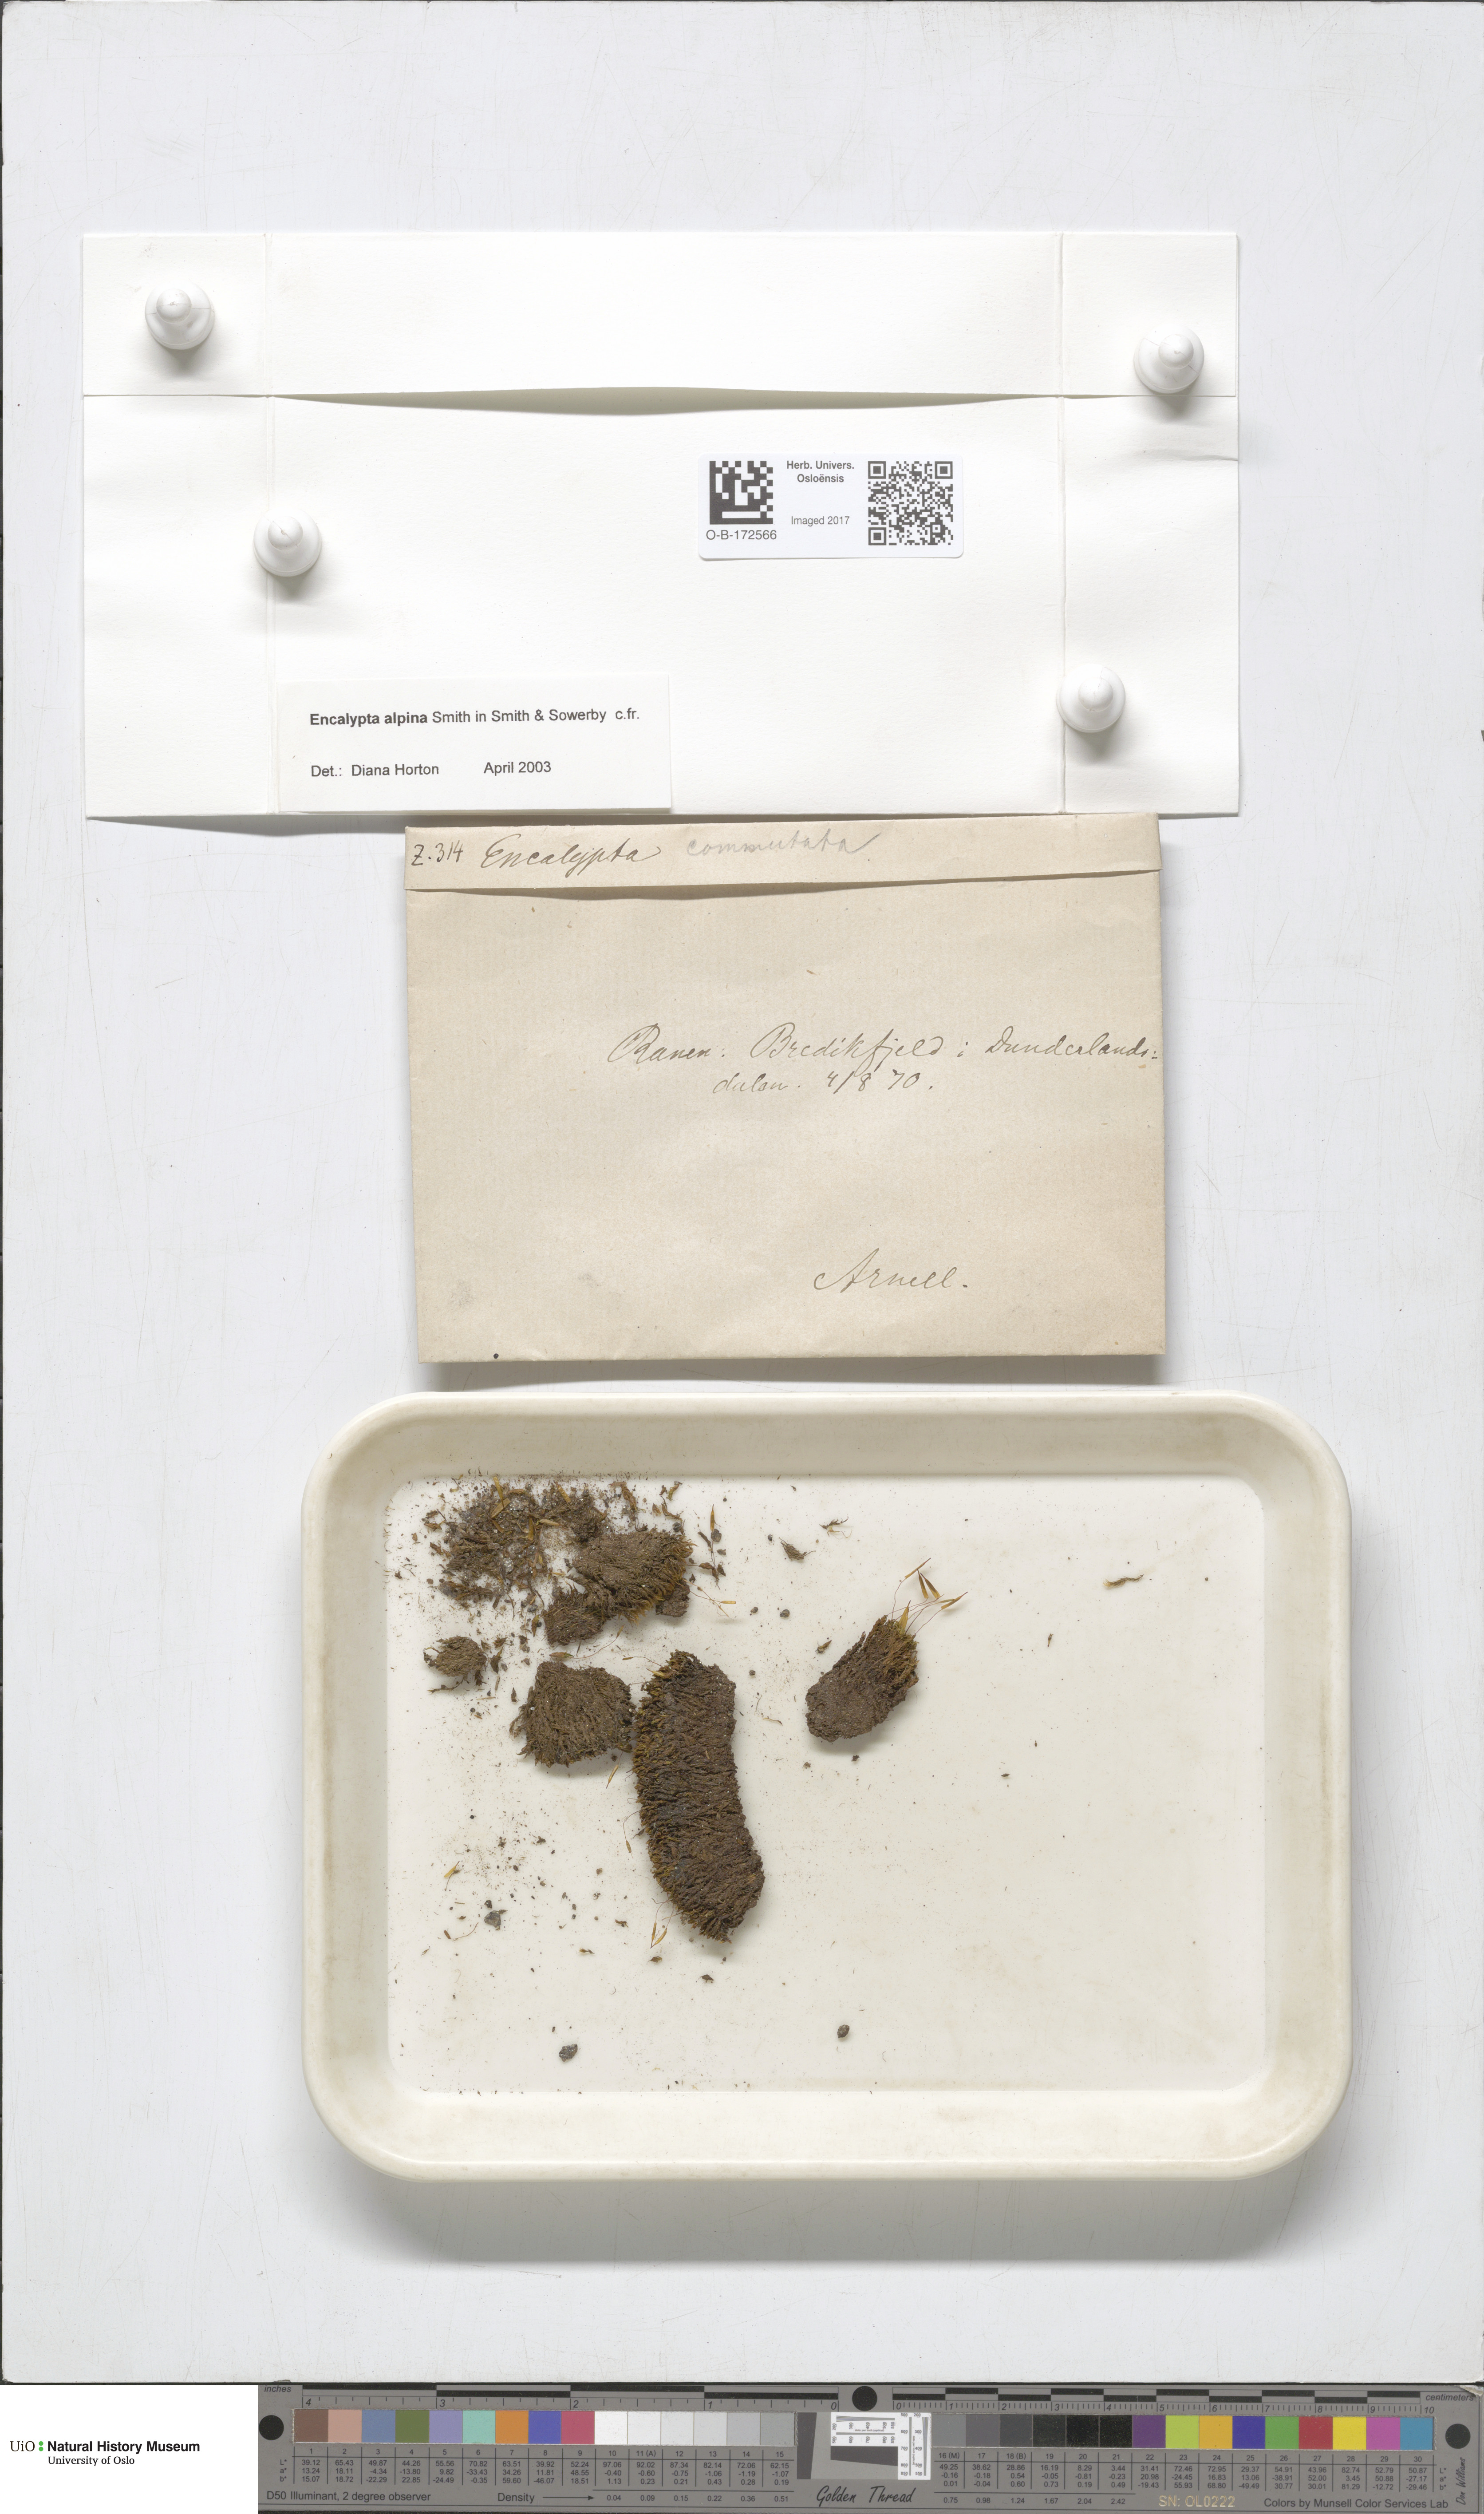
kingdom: Plantae
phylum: Bryophyta
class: Bryopsida
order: Encalyptales
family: Encalyptaceae
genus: Encalypta
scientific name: Encalypta alpina
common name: Alpine extinguisher-moss
